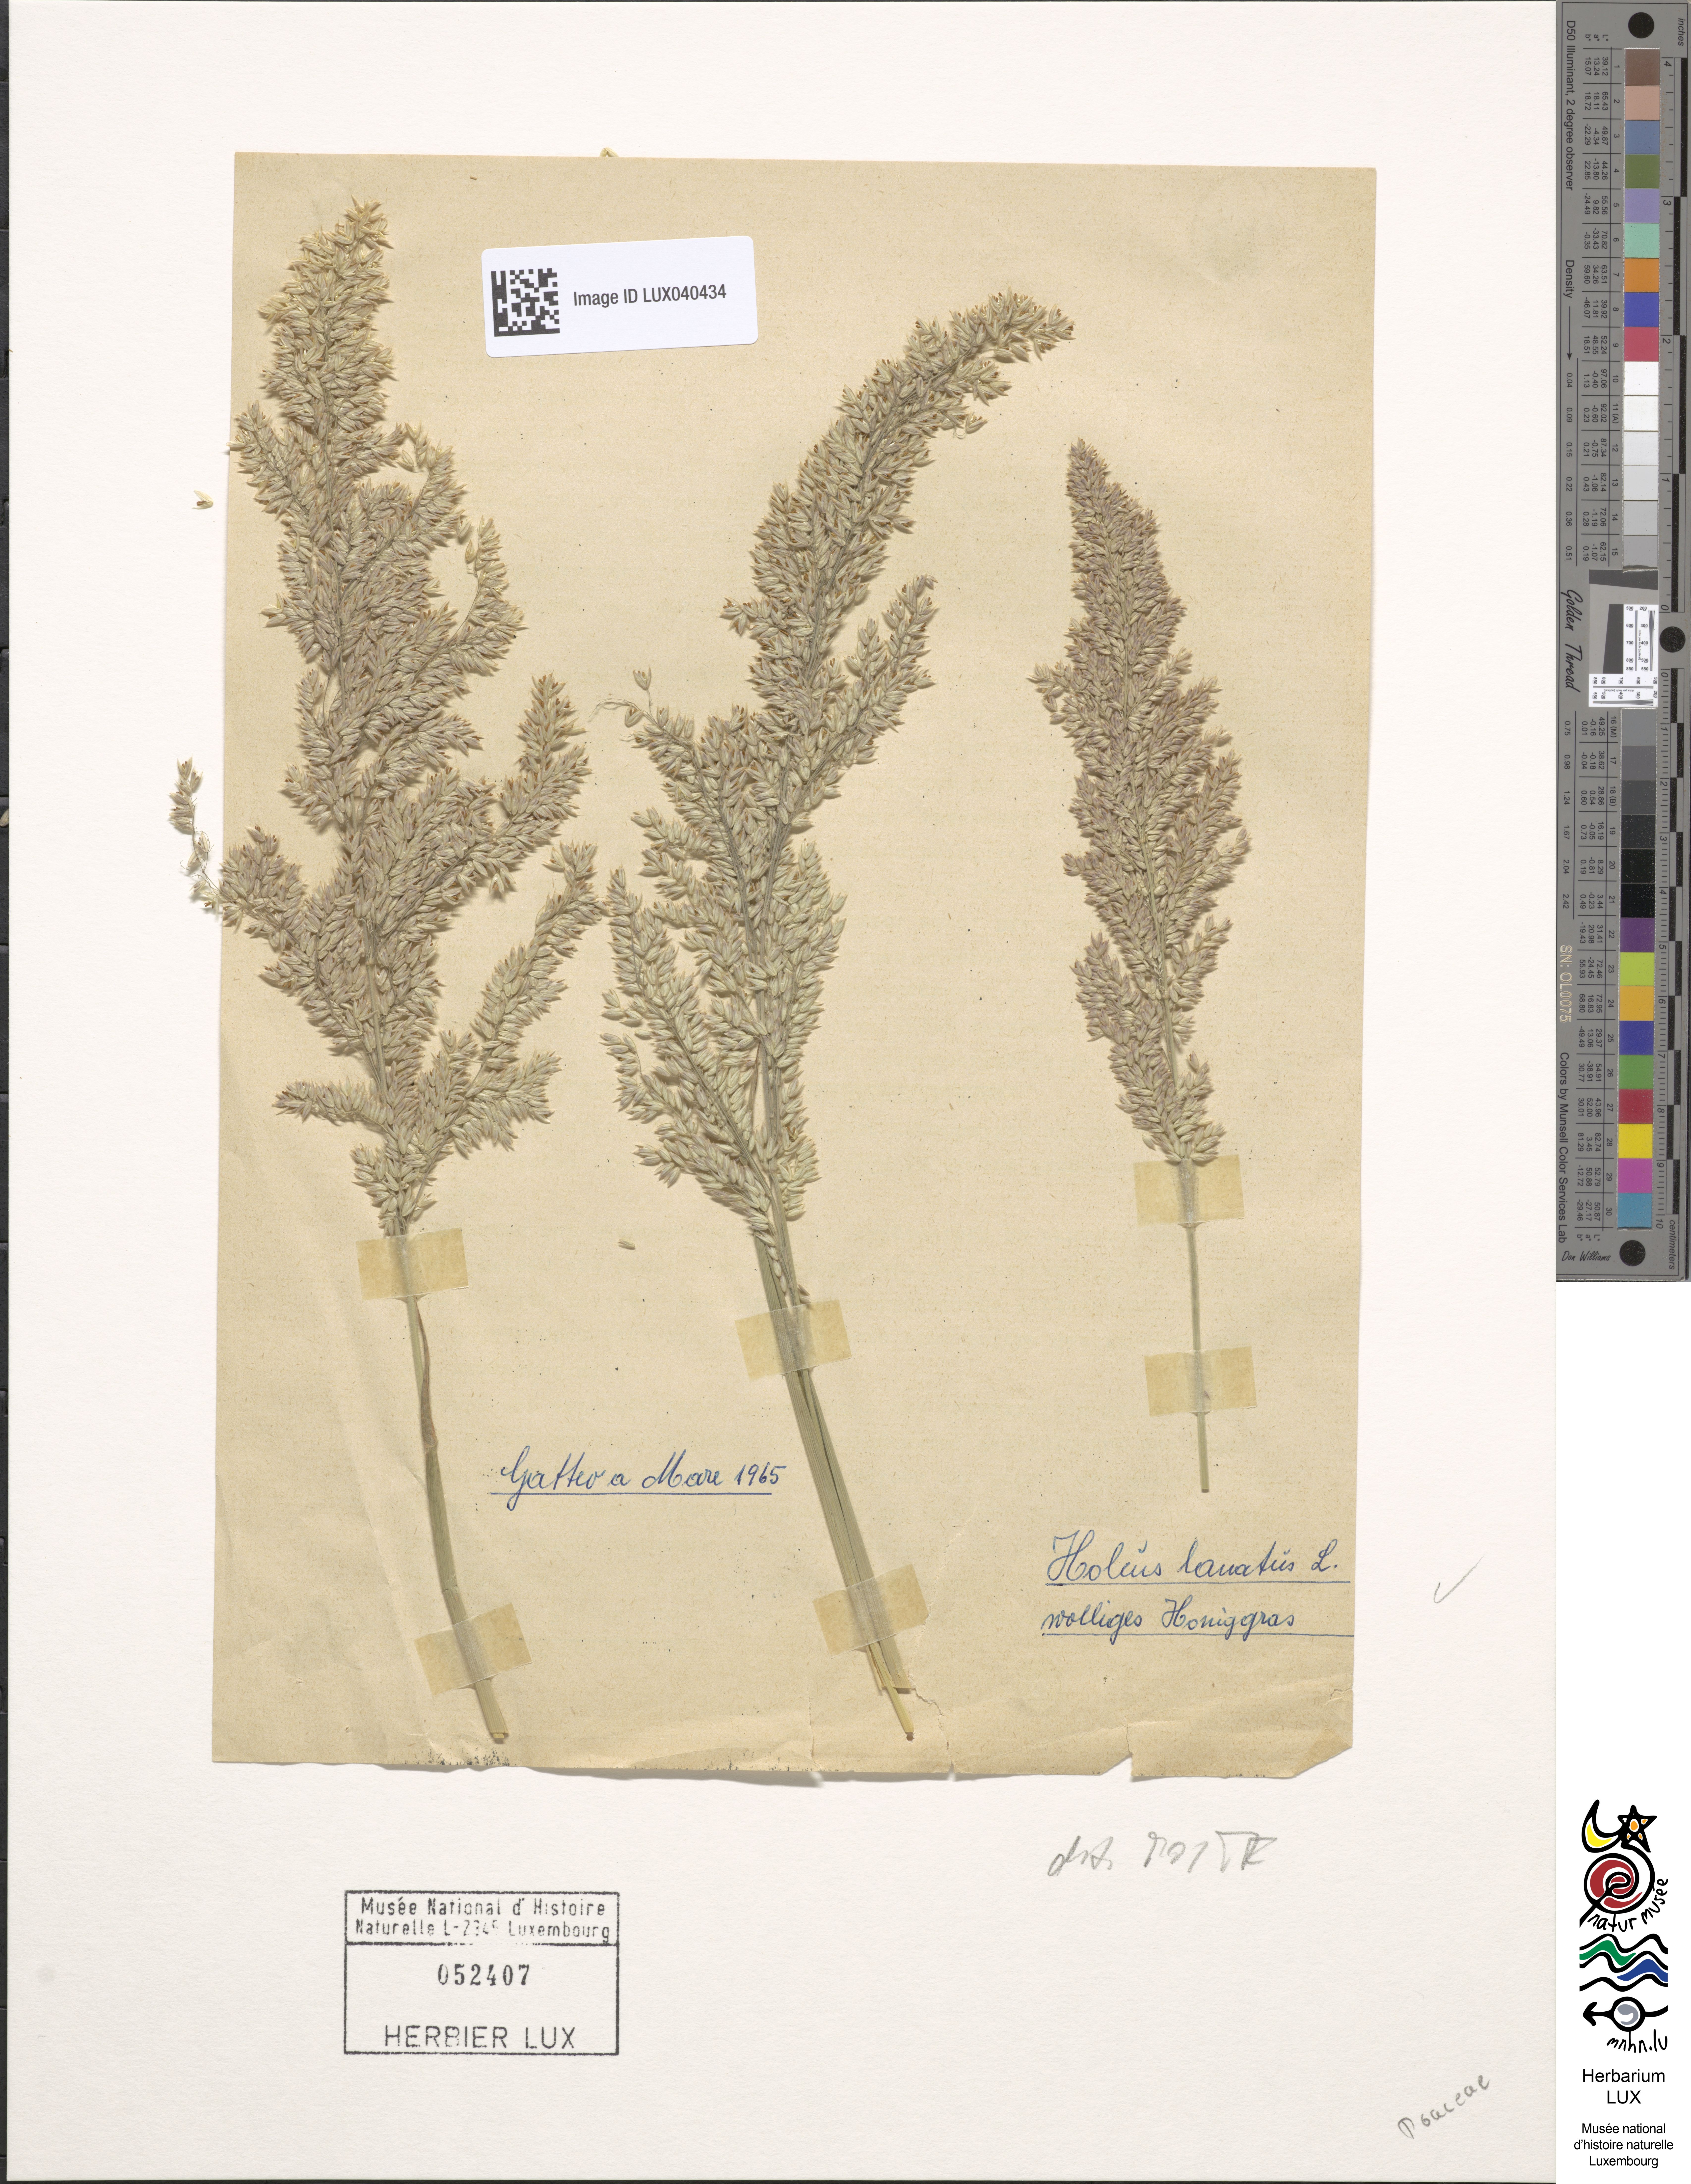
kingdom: Plantae
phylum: Tracheophyta
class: Liliopsida
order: Poales
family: Poaceae
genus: Holcus
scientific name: Holcus lanatus
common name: Yorkshire-fog
